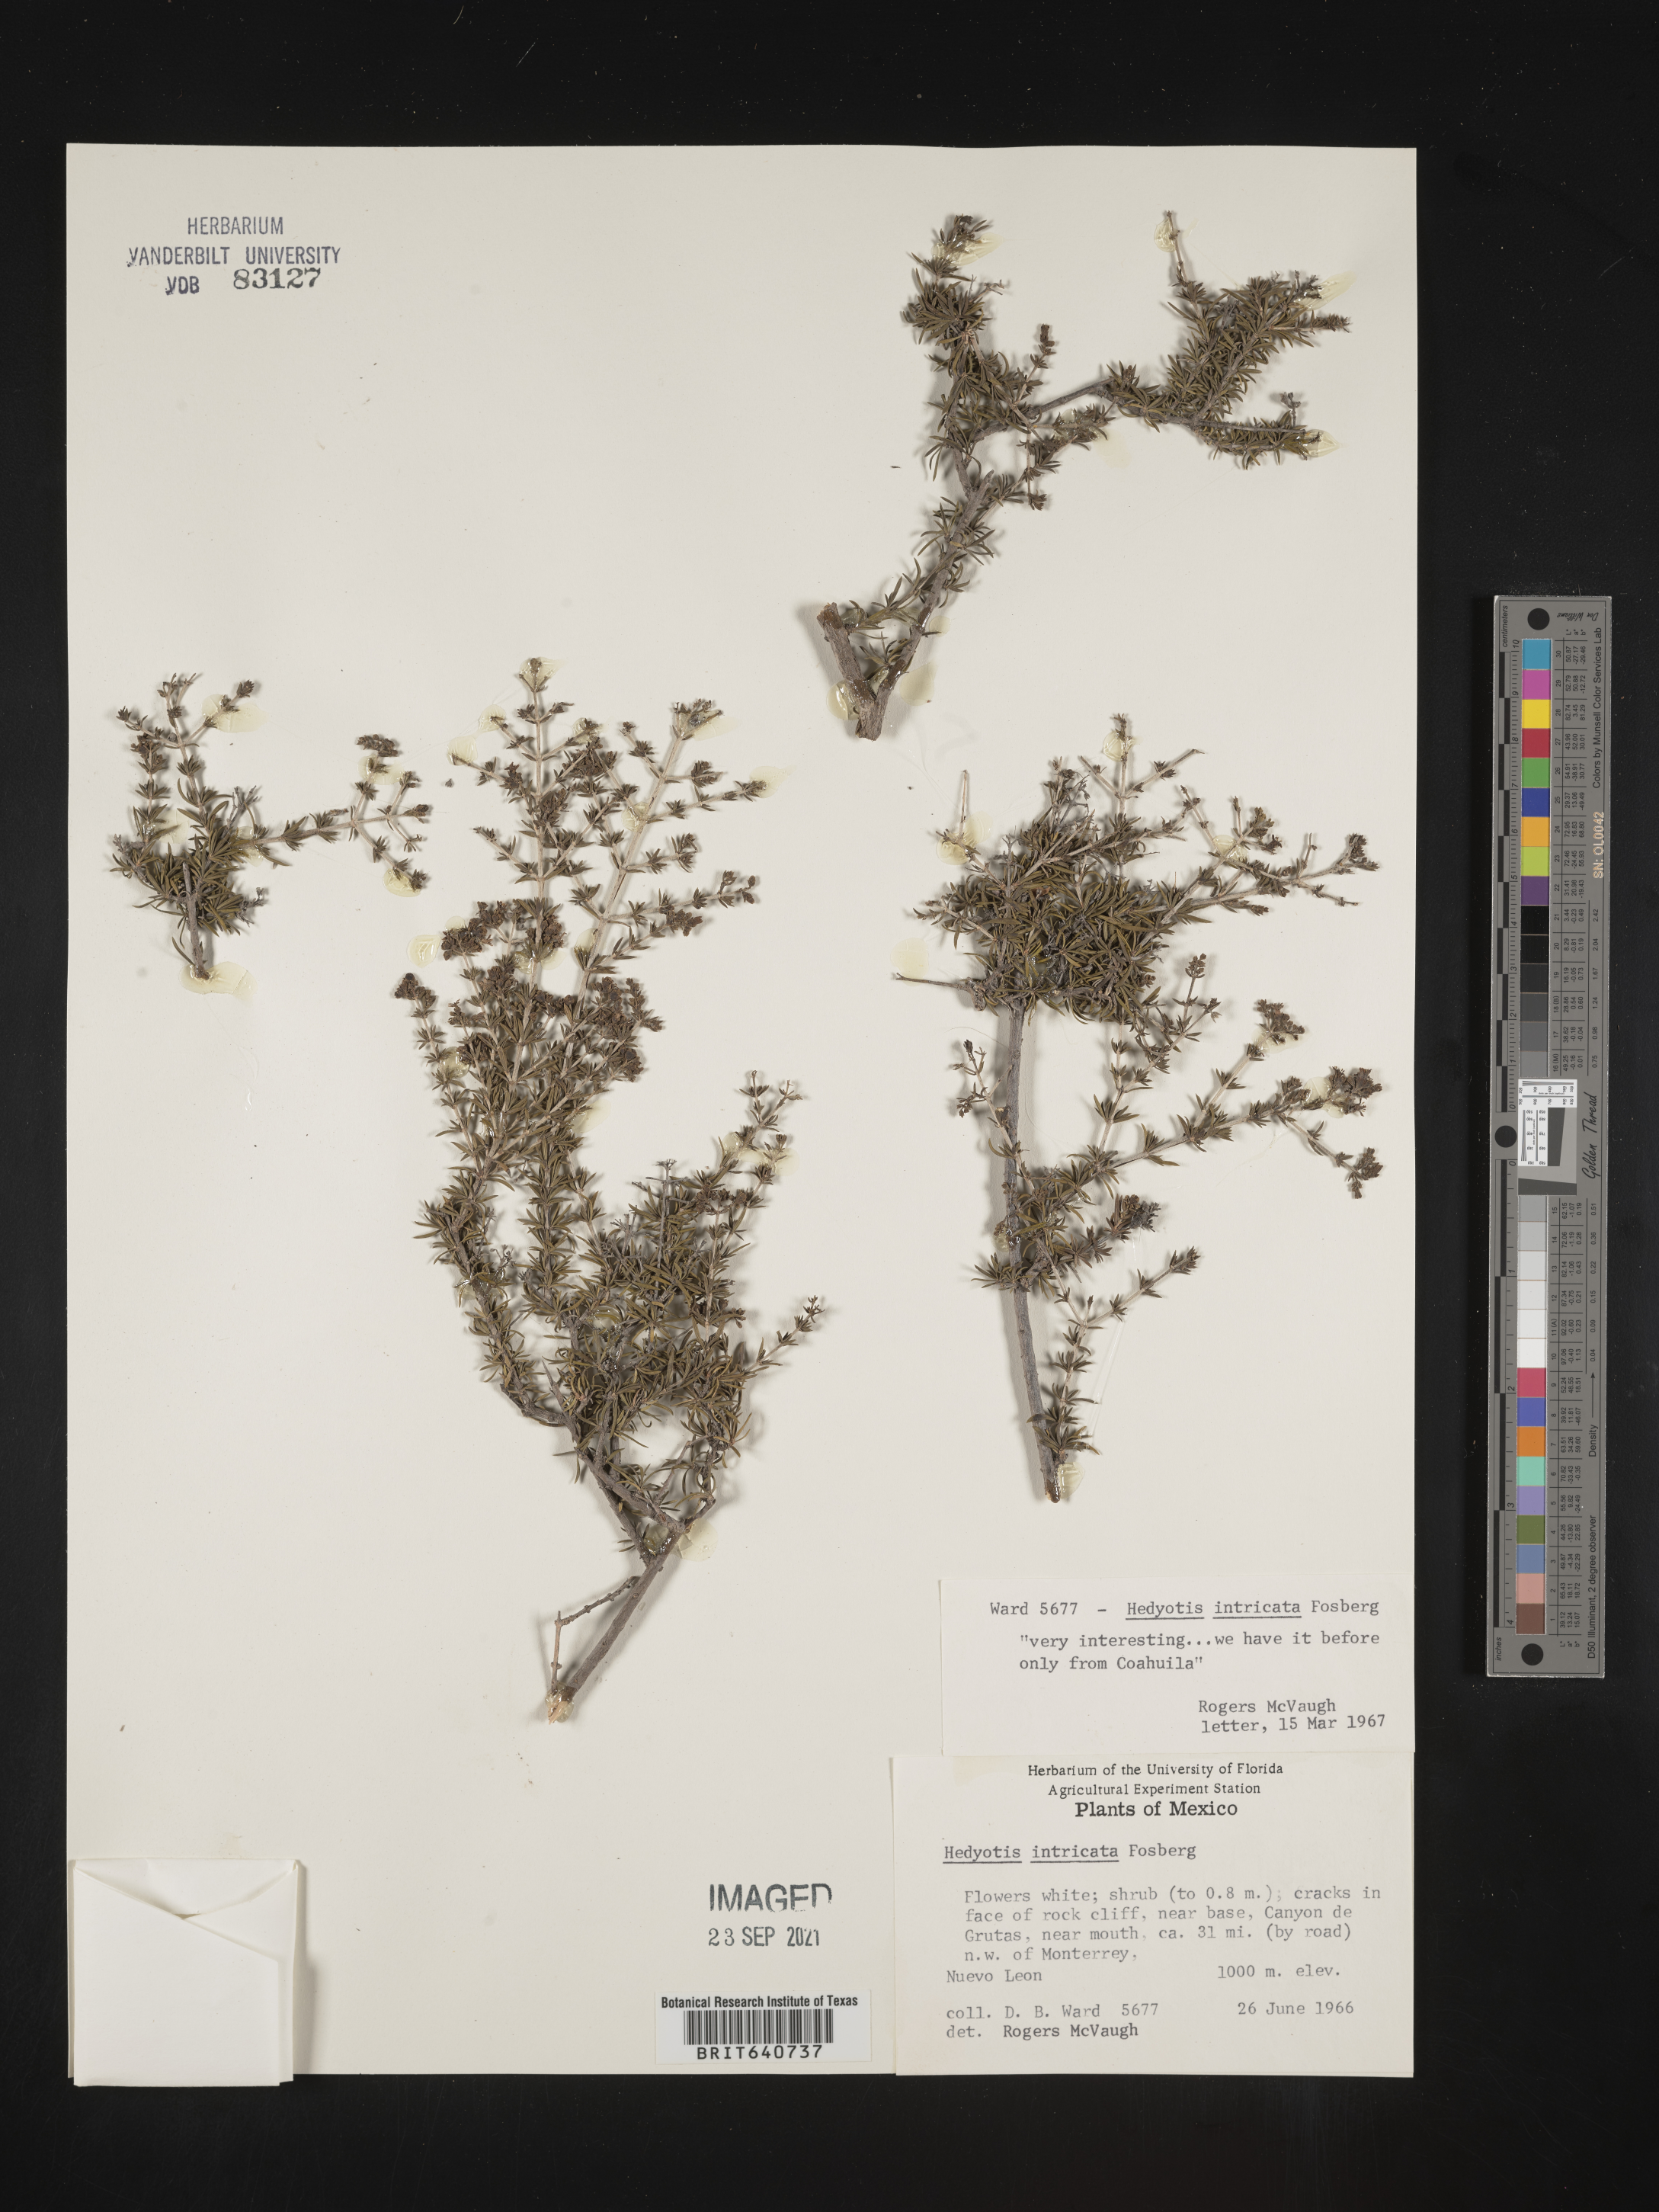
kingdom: Plantae
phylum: Tracheophyta
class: Magnoliopsida
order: Gentianales
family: Rubiaceae
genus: Hedyotis
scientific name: Hedyotis
